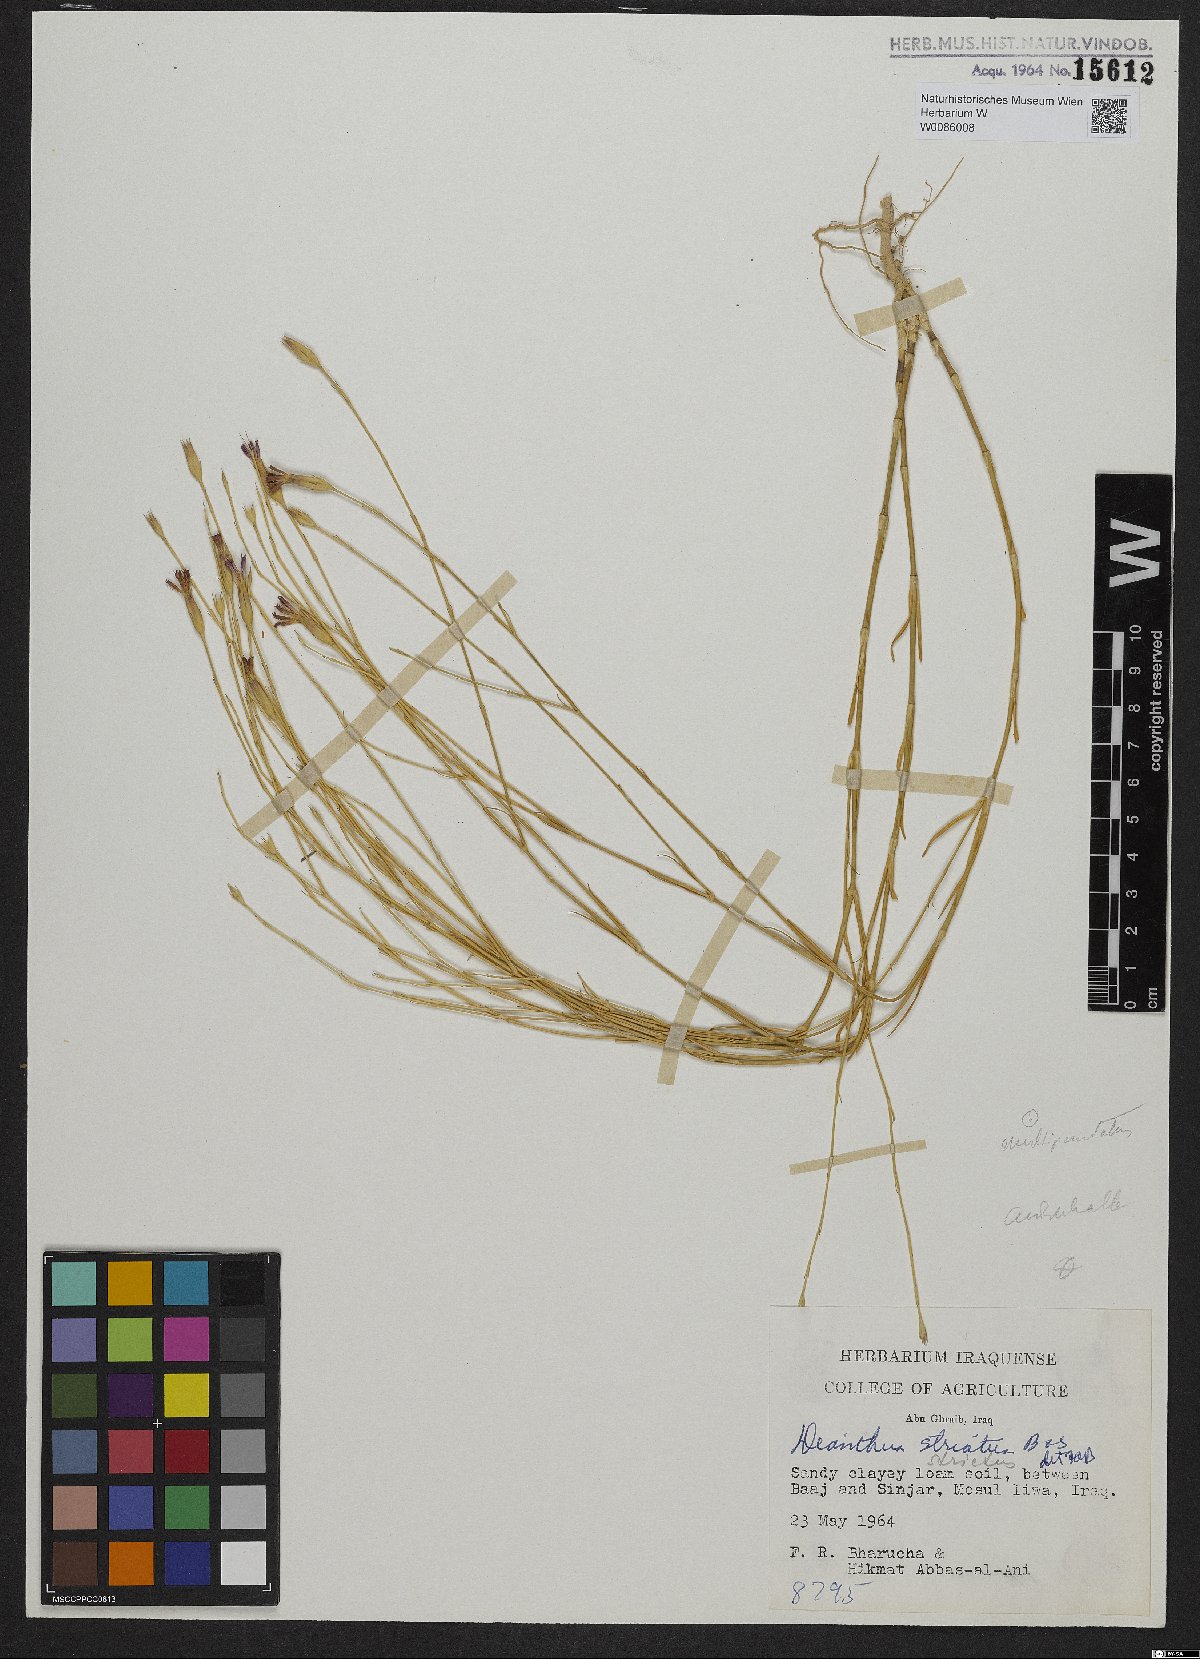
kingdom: Plantae
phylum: Tracheophyta
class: Magnoliopsida
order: Caryophyllales
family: Caryophyllaceae
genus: Dianthus
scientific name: Dianthus strictus
